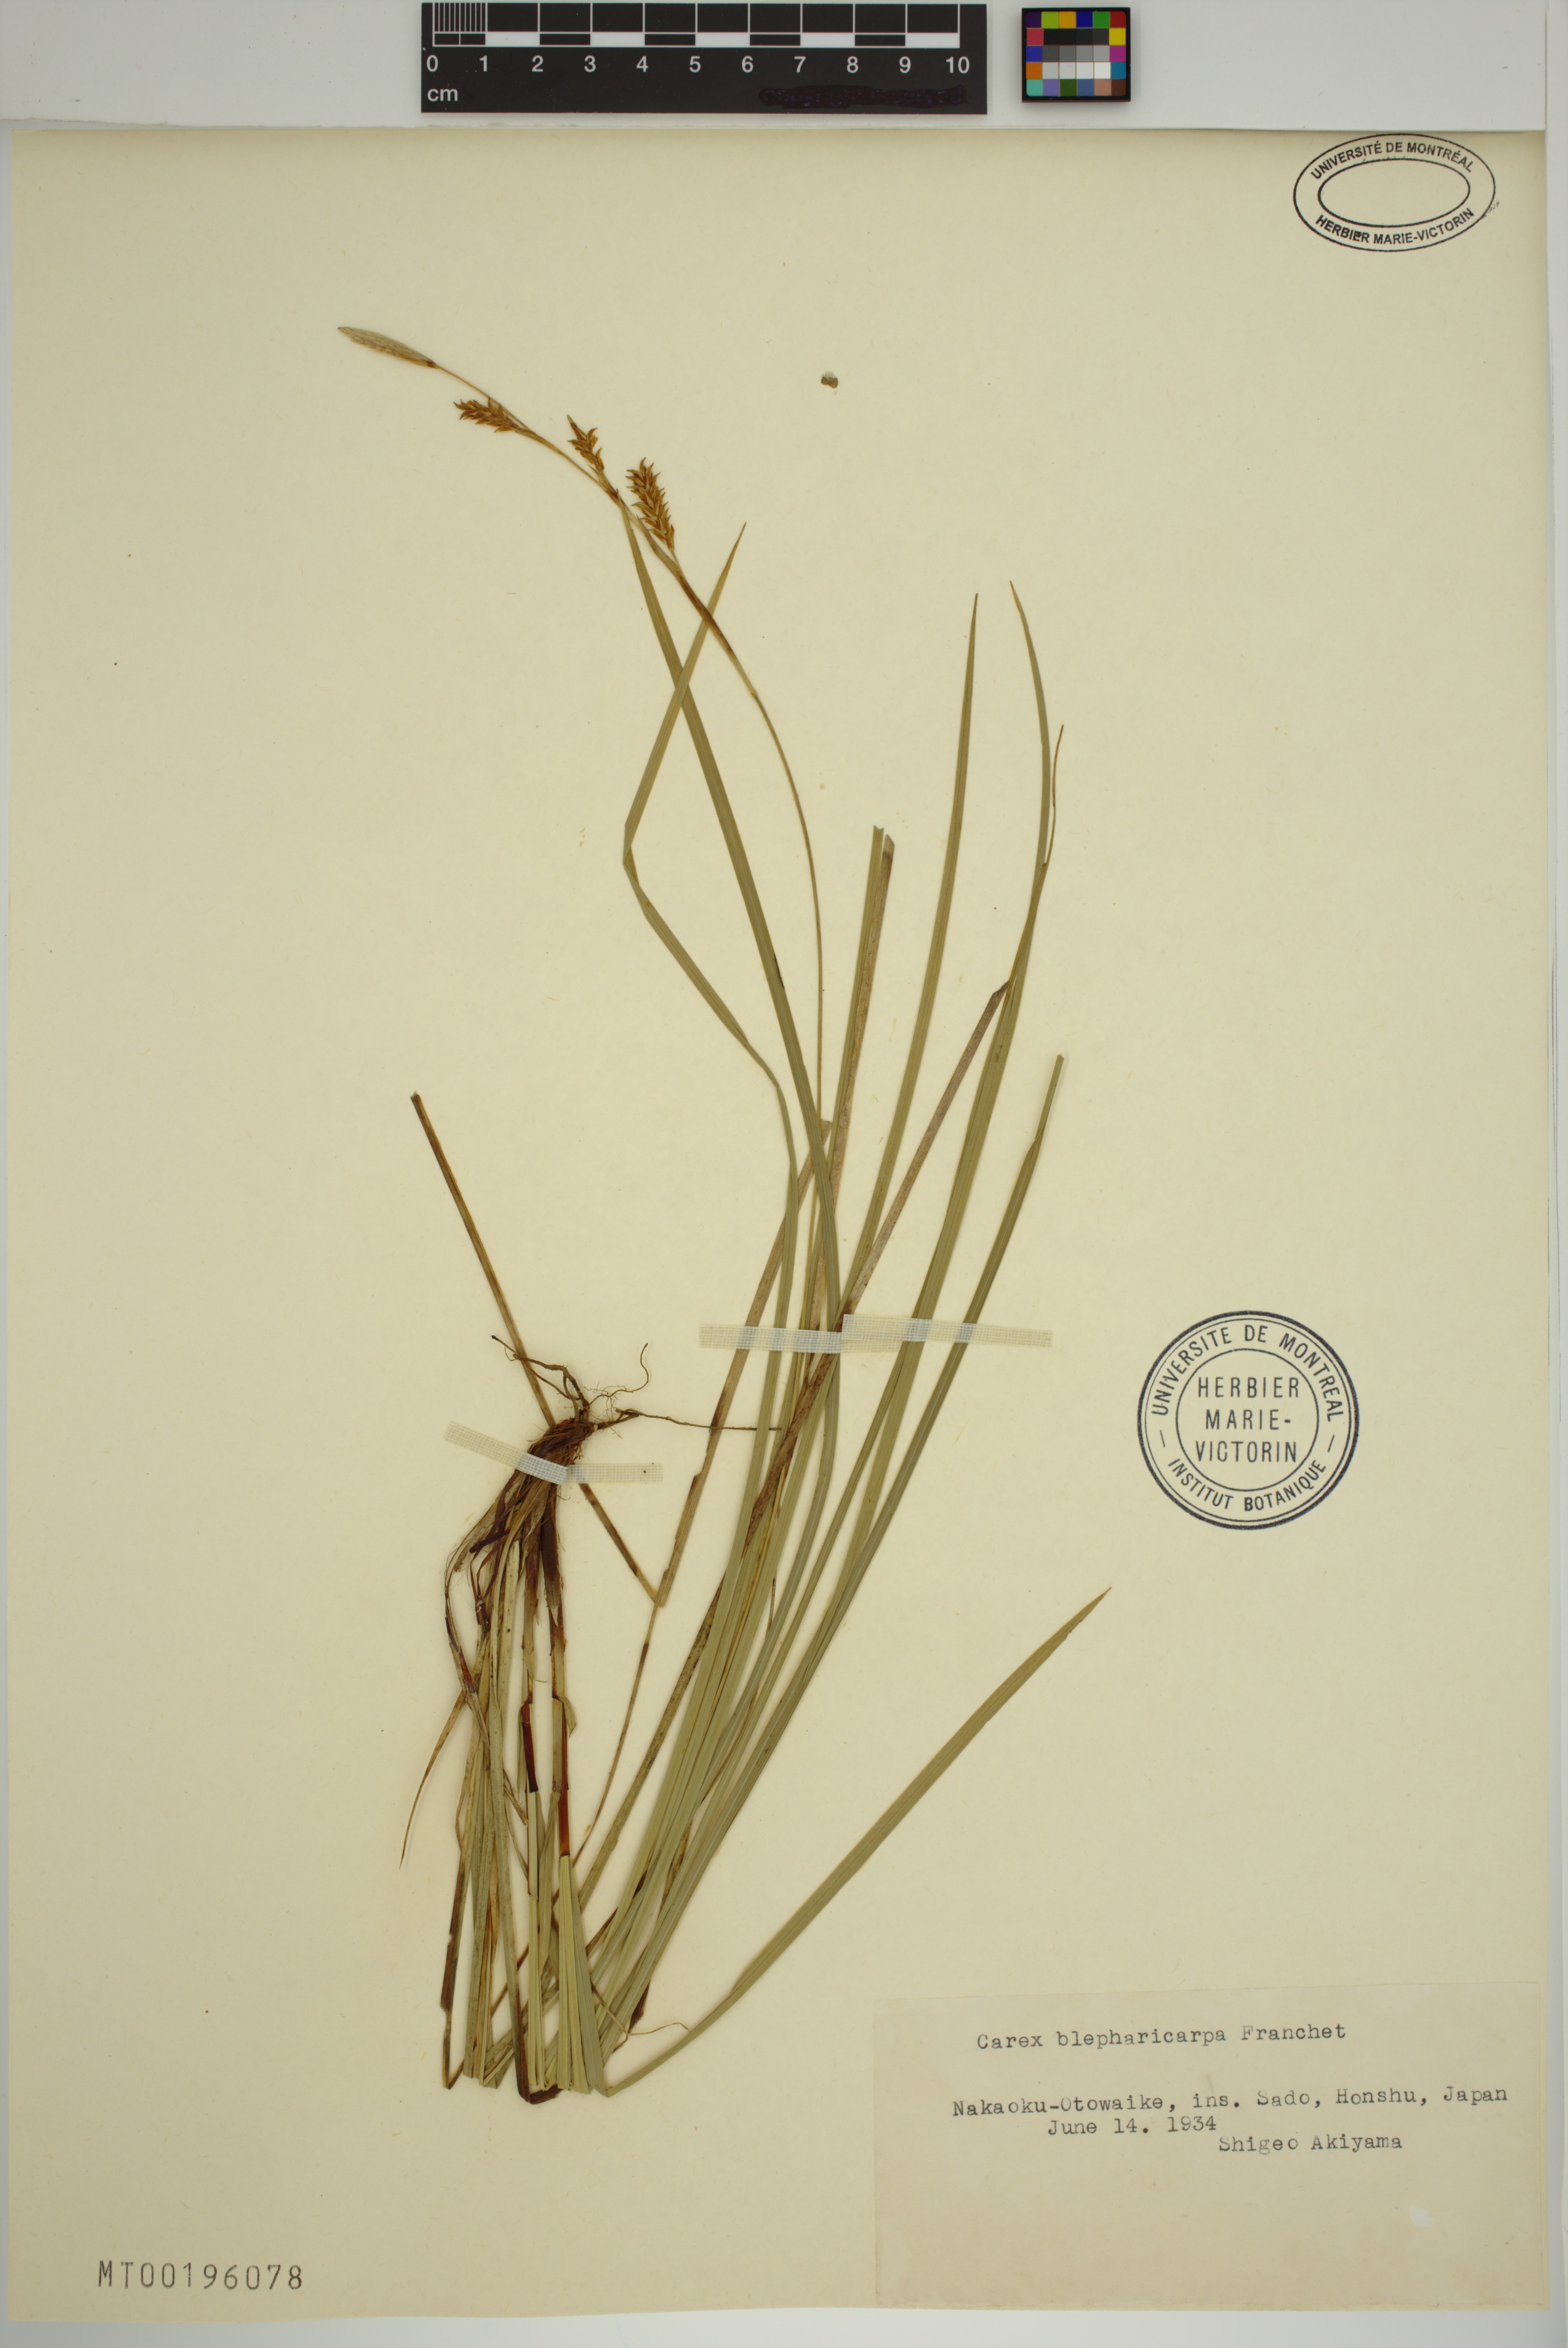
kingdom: Plantae
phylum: Tracheophyta
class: Liliopsida
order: Poales
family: Cyperaceae
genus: Carex
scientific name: Carex blepharicarpa
